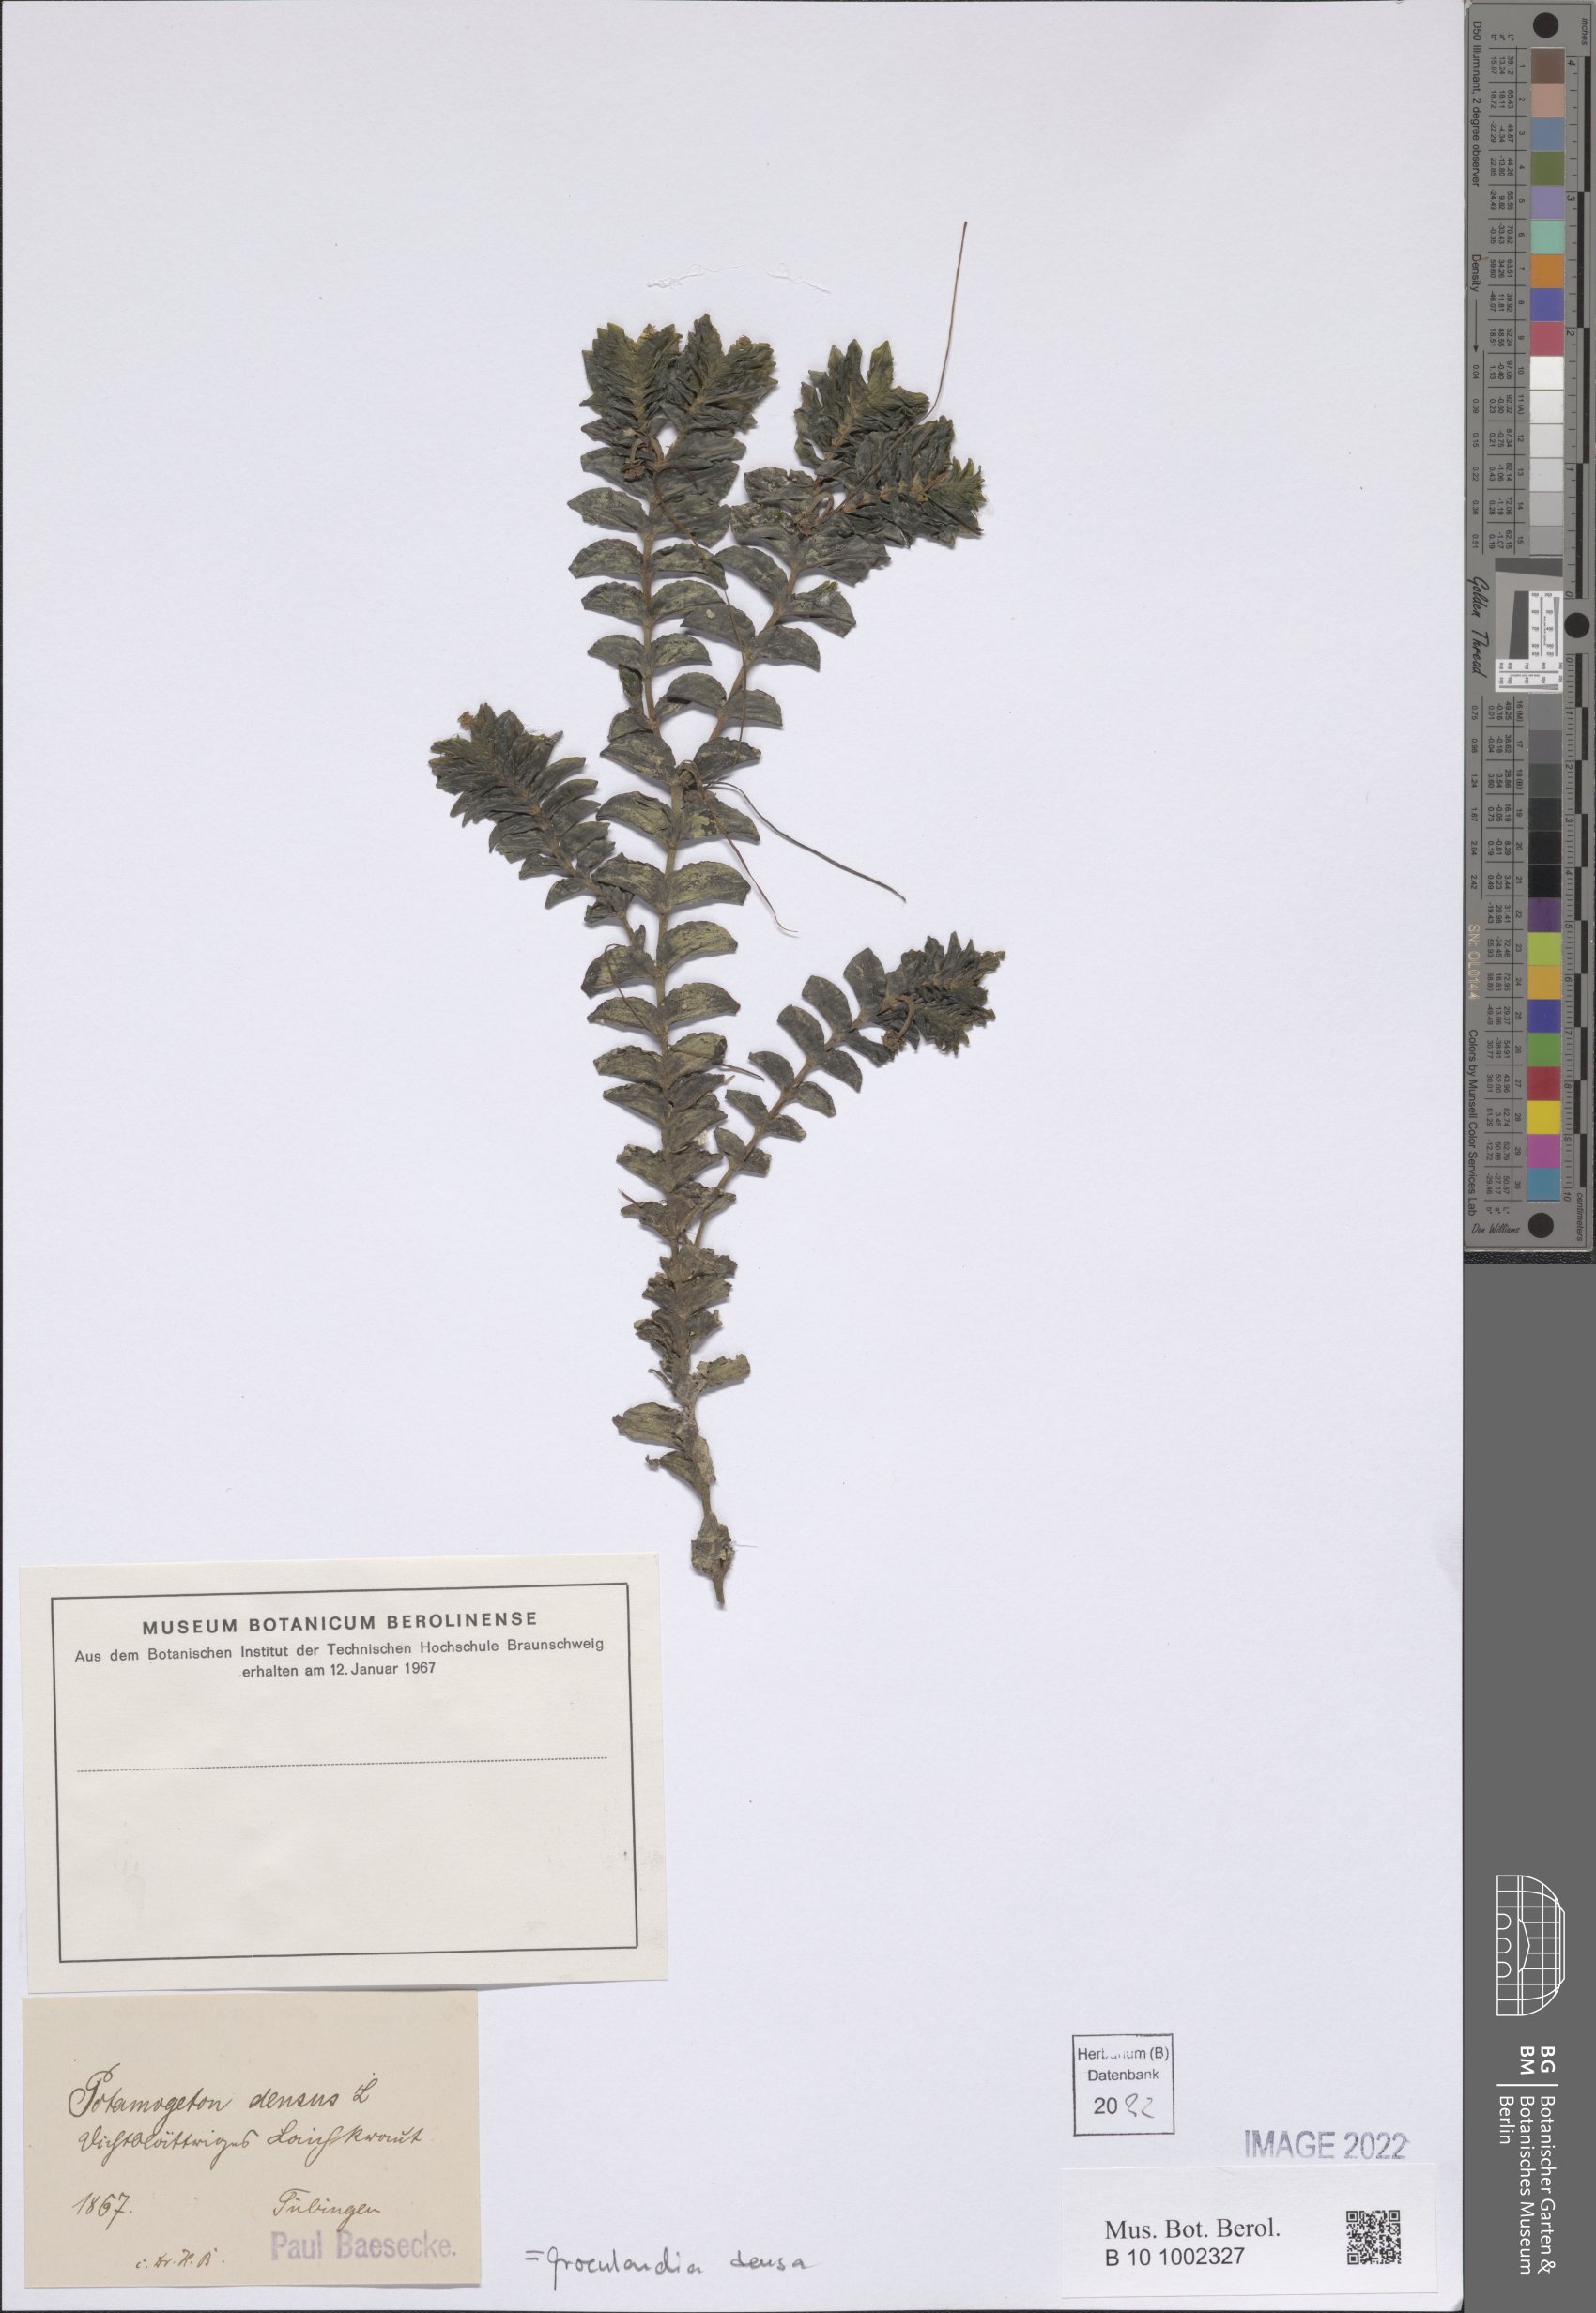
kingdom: Plantae
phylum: Tracheophyta
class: Liliopsida
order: Alismatales
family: Potamogetonaceae
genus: Groenlandia
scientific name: Groenlandia densa
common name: Opposite-leaved pondweed
